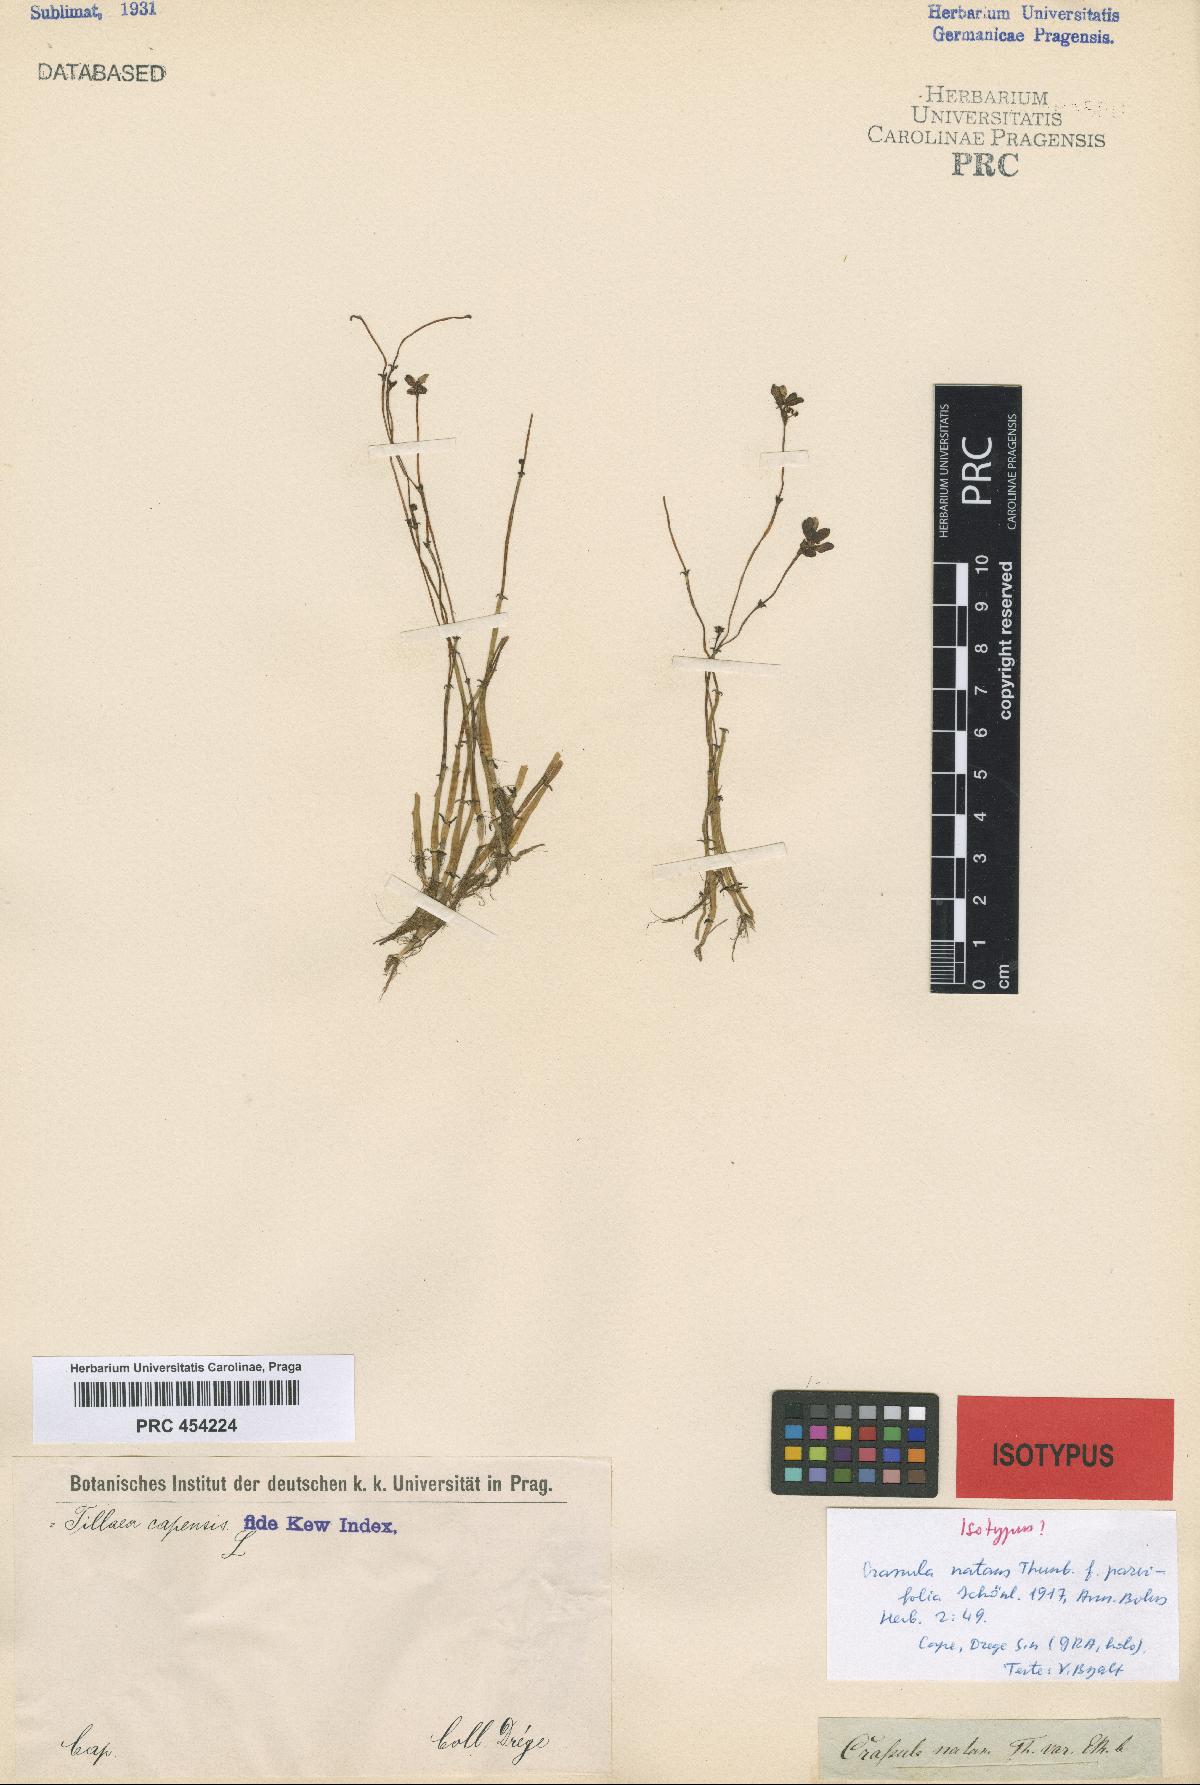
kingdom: Plantae
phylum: Tracheophyta
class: Magnoliopsida
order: Saxifragales
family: Crassulaceae
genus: Crassula
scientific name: Crassula natans
